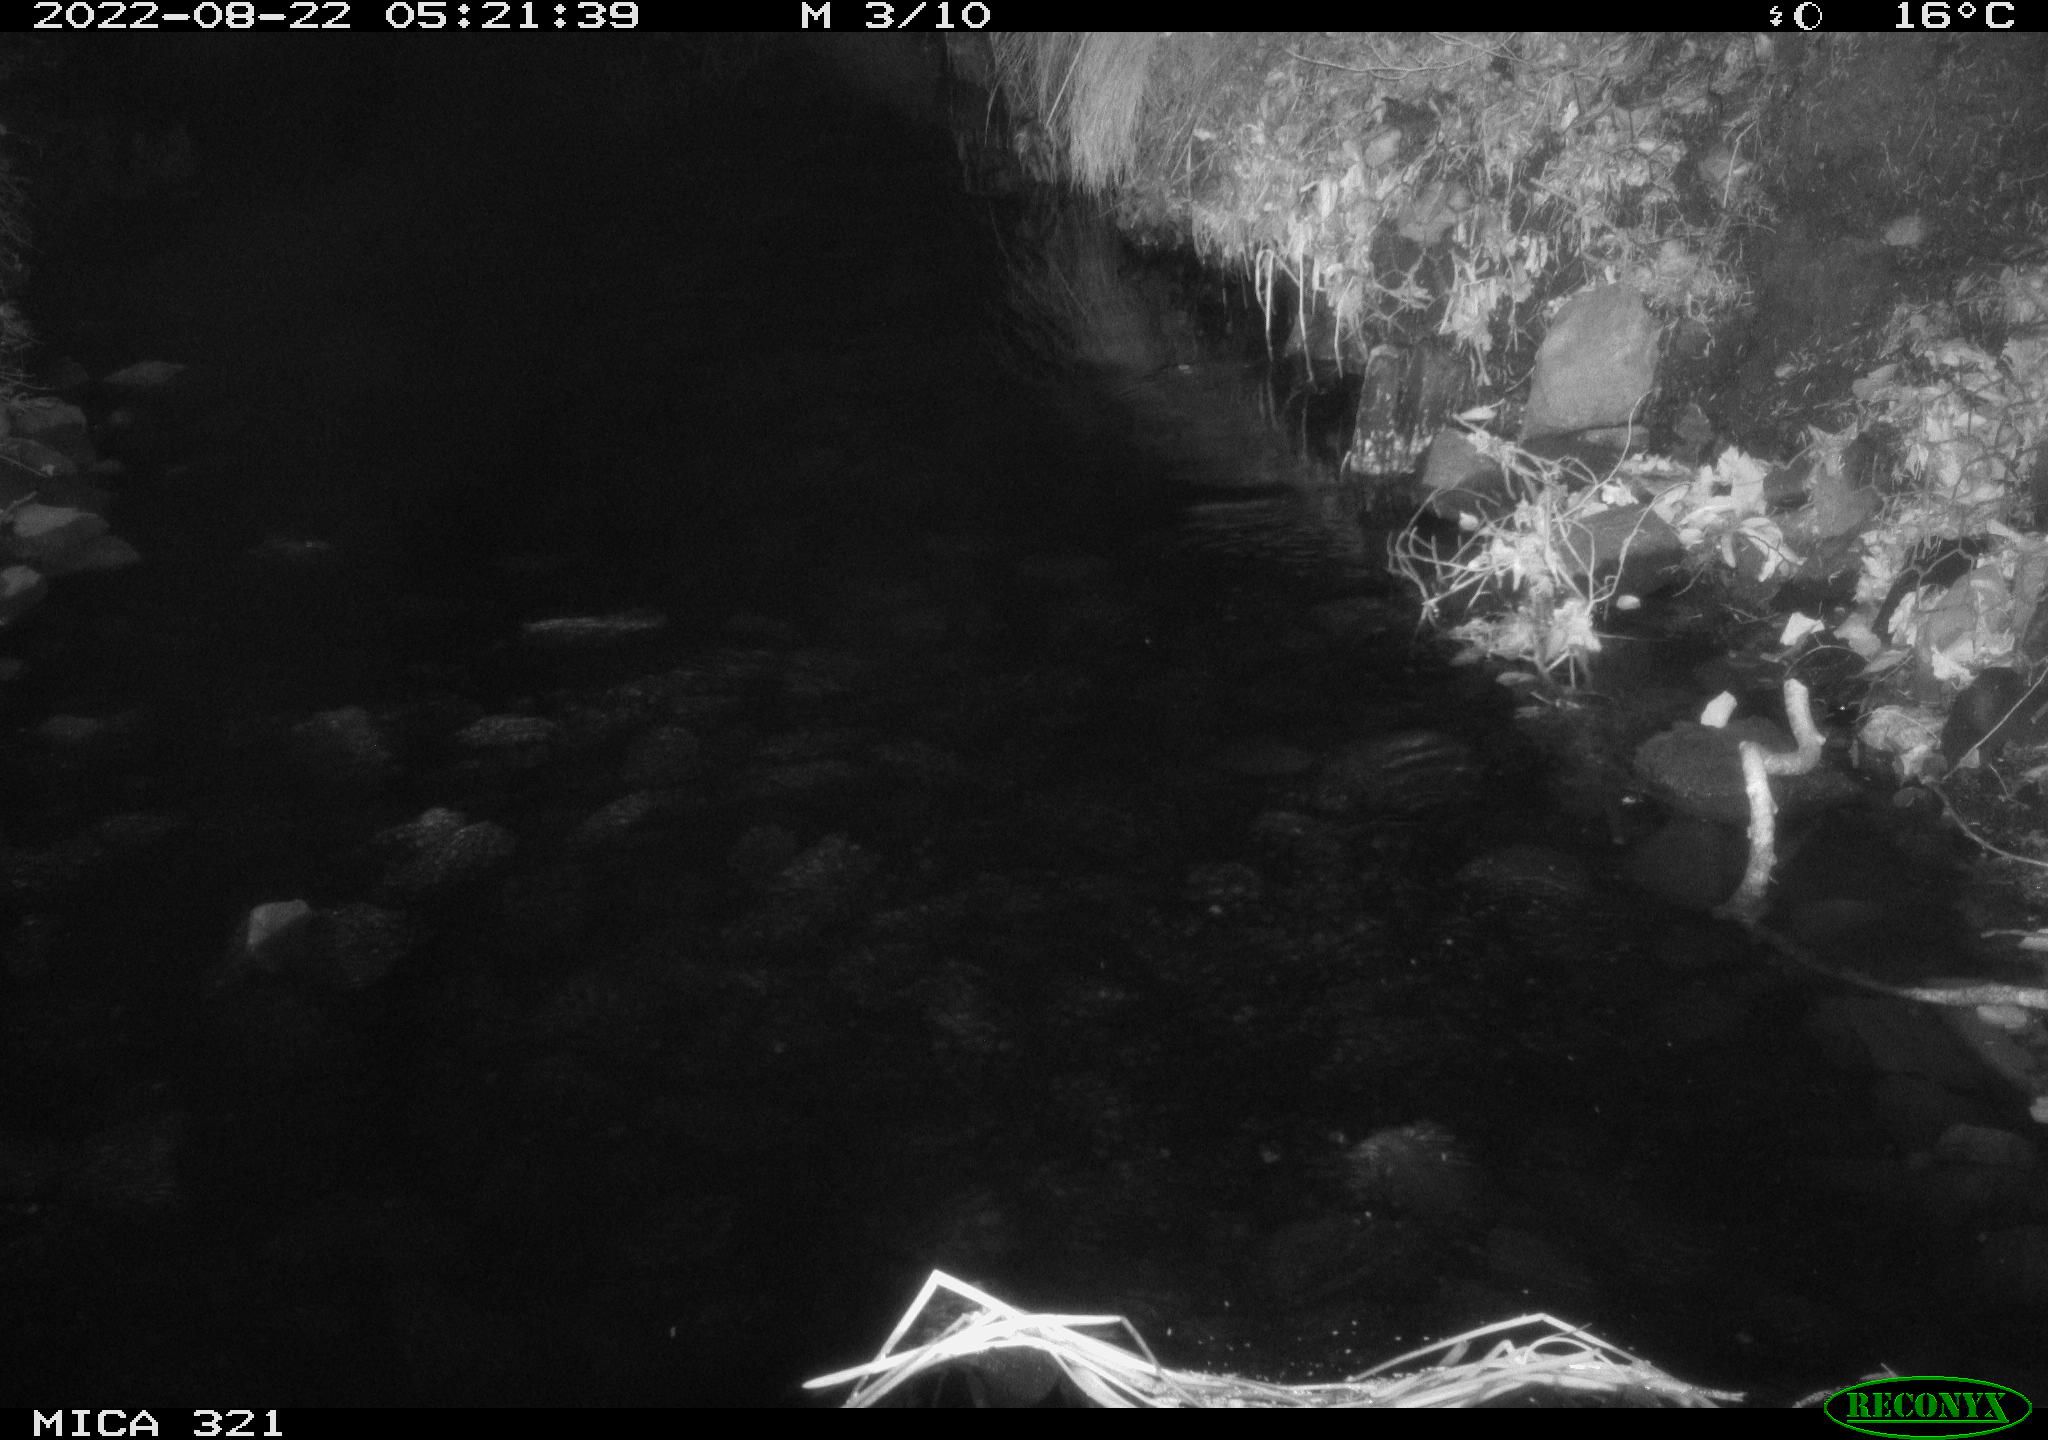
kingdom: Animalia
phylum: Chordata
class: Mammalia
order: Rodentia
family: Muridae
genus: Rattus
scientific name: Rattus norvegicus
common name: Brown rat
